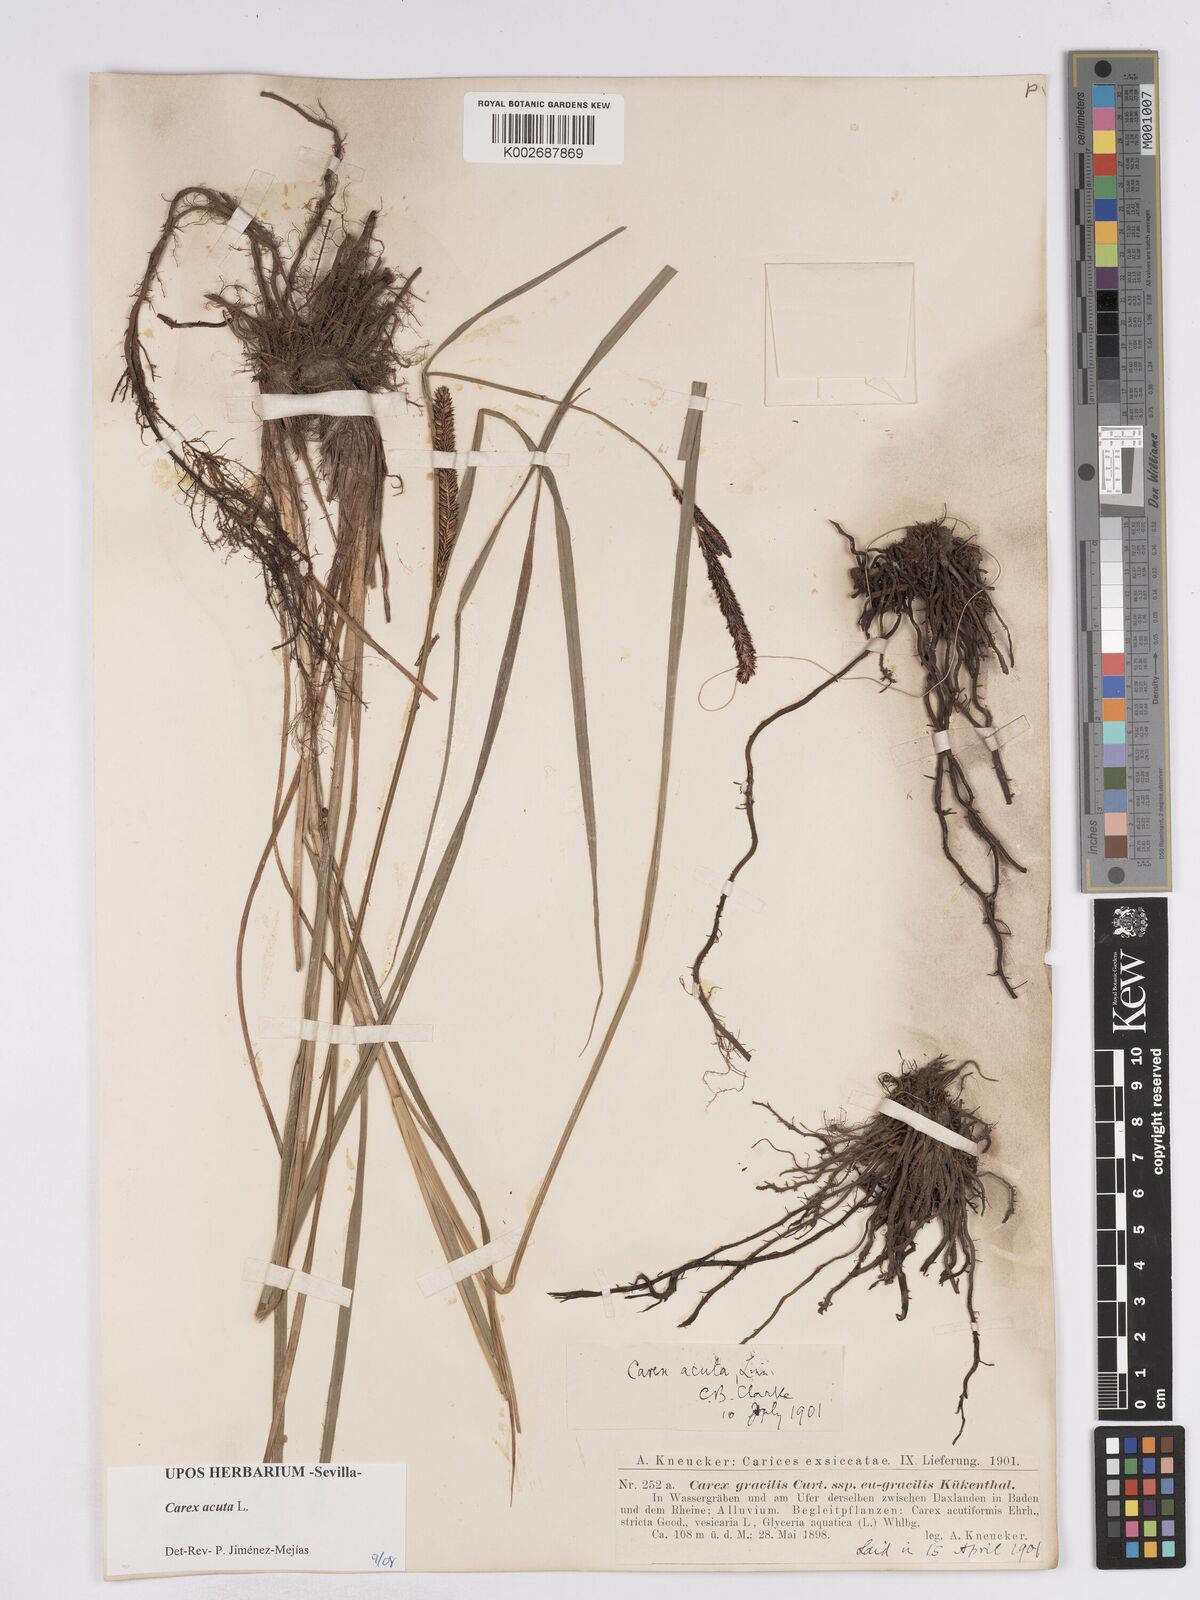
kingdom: Plantae
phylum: Tracheophyta
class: Liliopsida
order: Poales
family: Cyperaceae
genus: Carex
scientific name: Carex acuta
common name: Slender tufted-sedge
